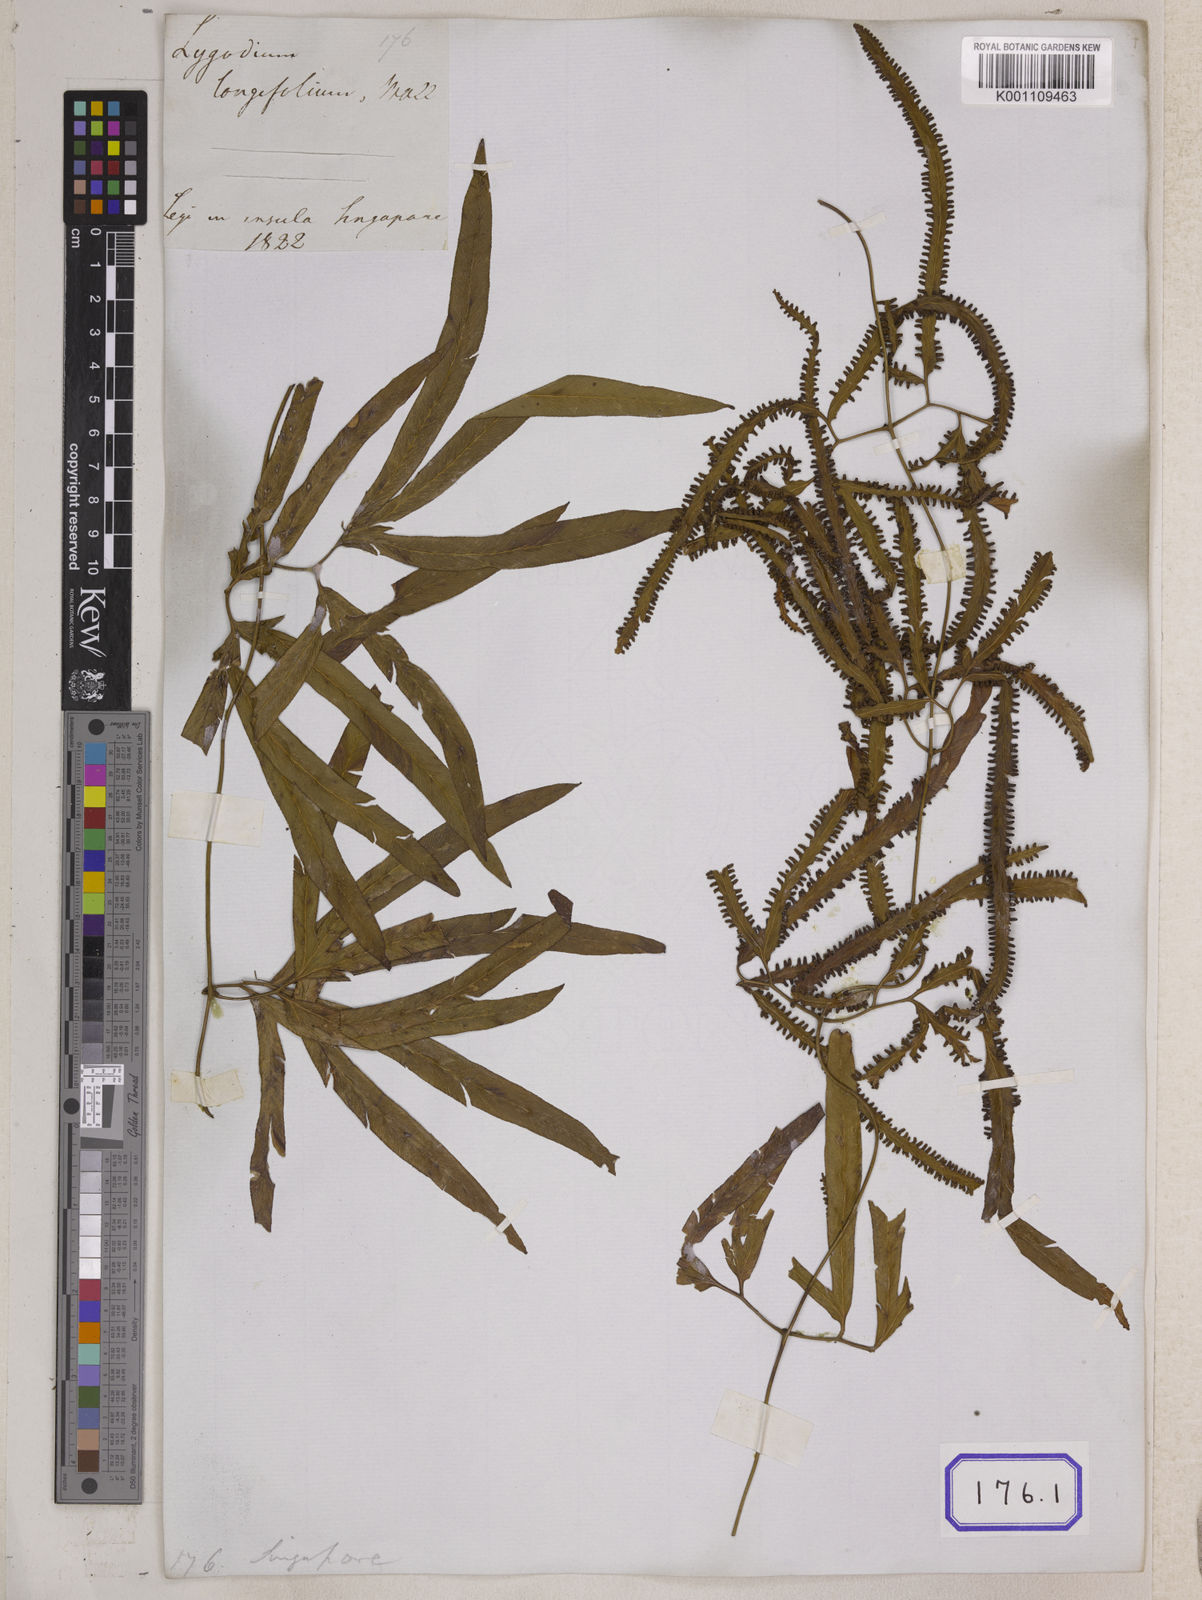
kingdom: Plantae
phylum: Tracheophyta
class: Polypodiopsida
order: Schizaeales
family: Lygodiaceae
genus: Lygodium
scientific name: Lygodium circinnatum
